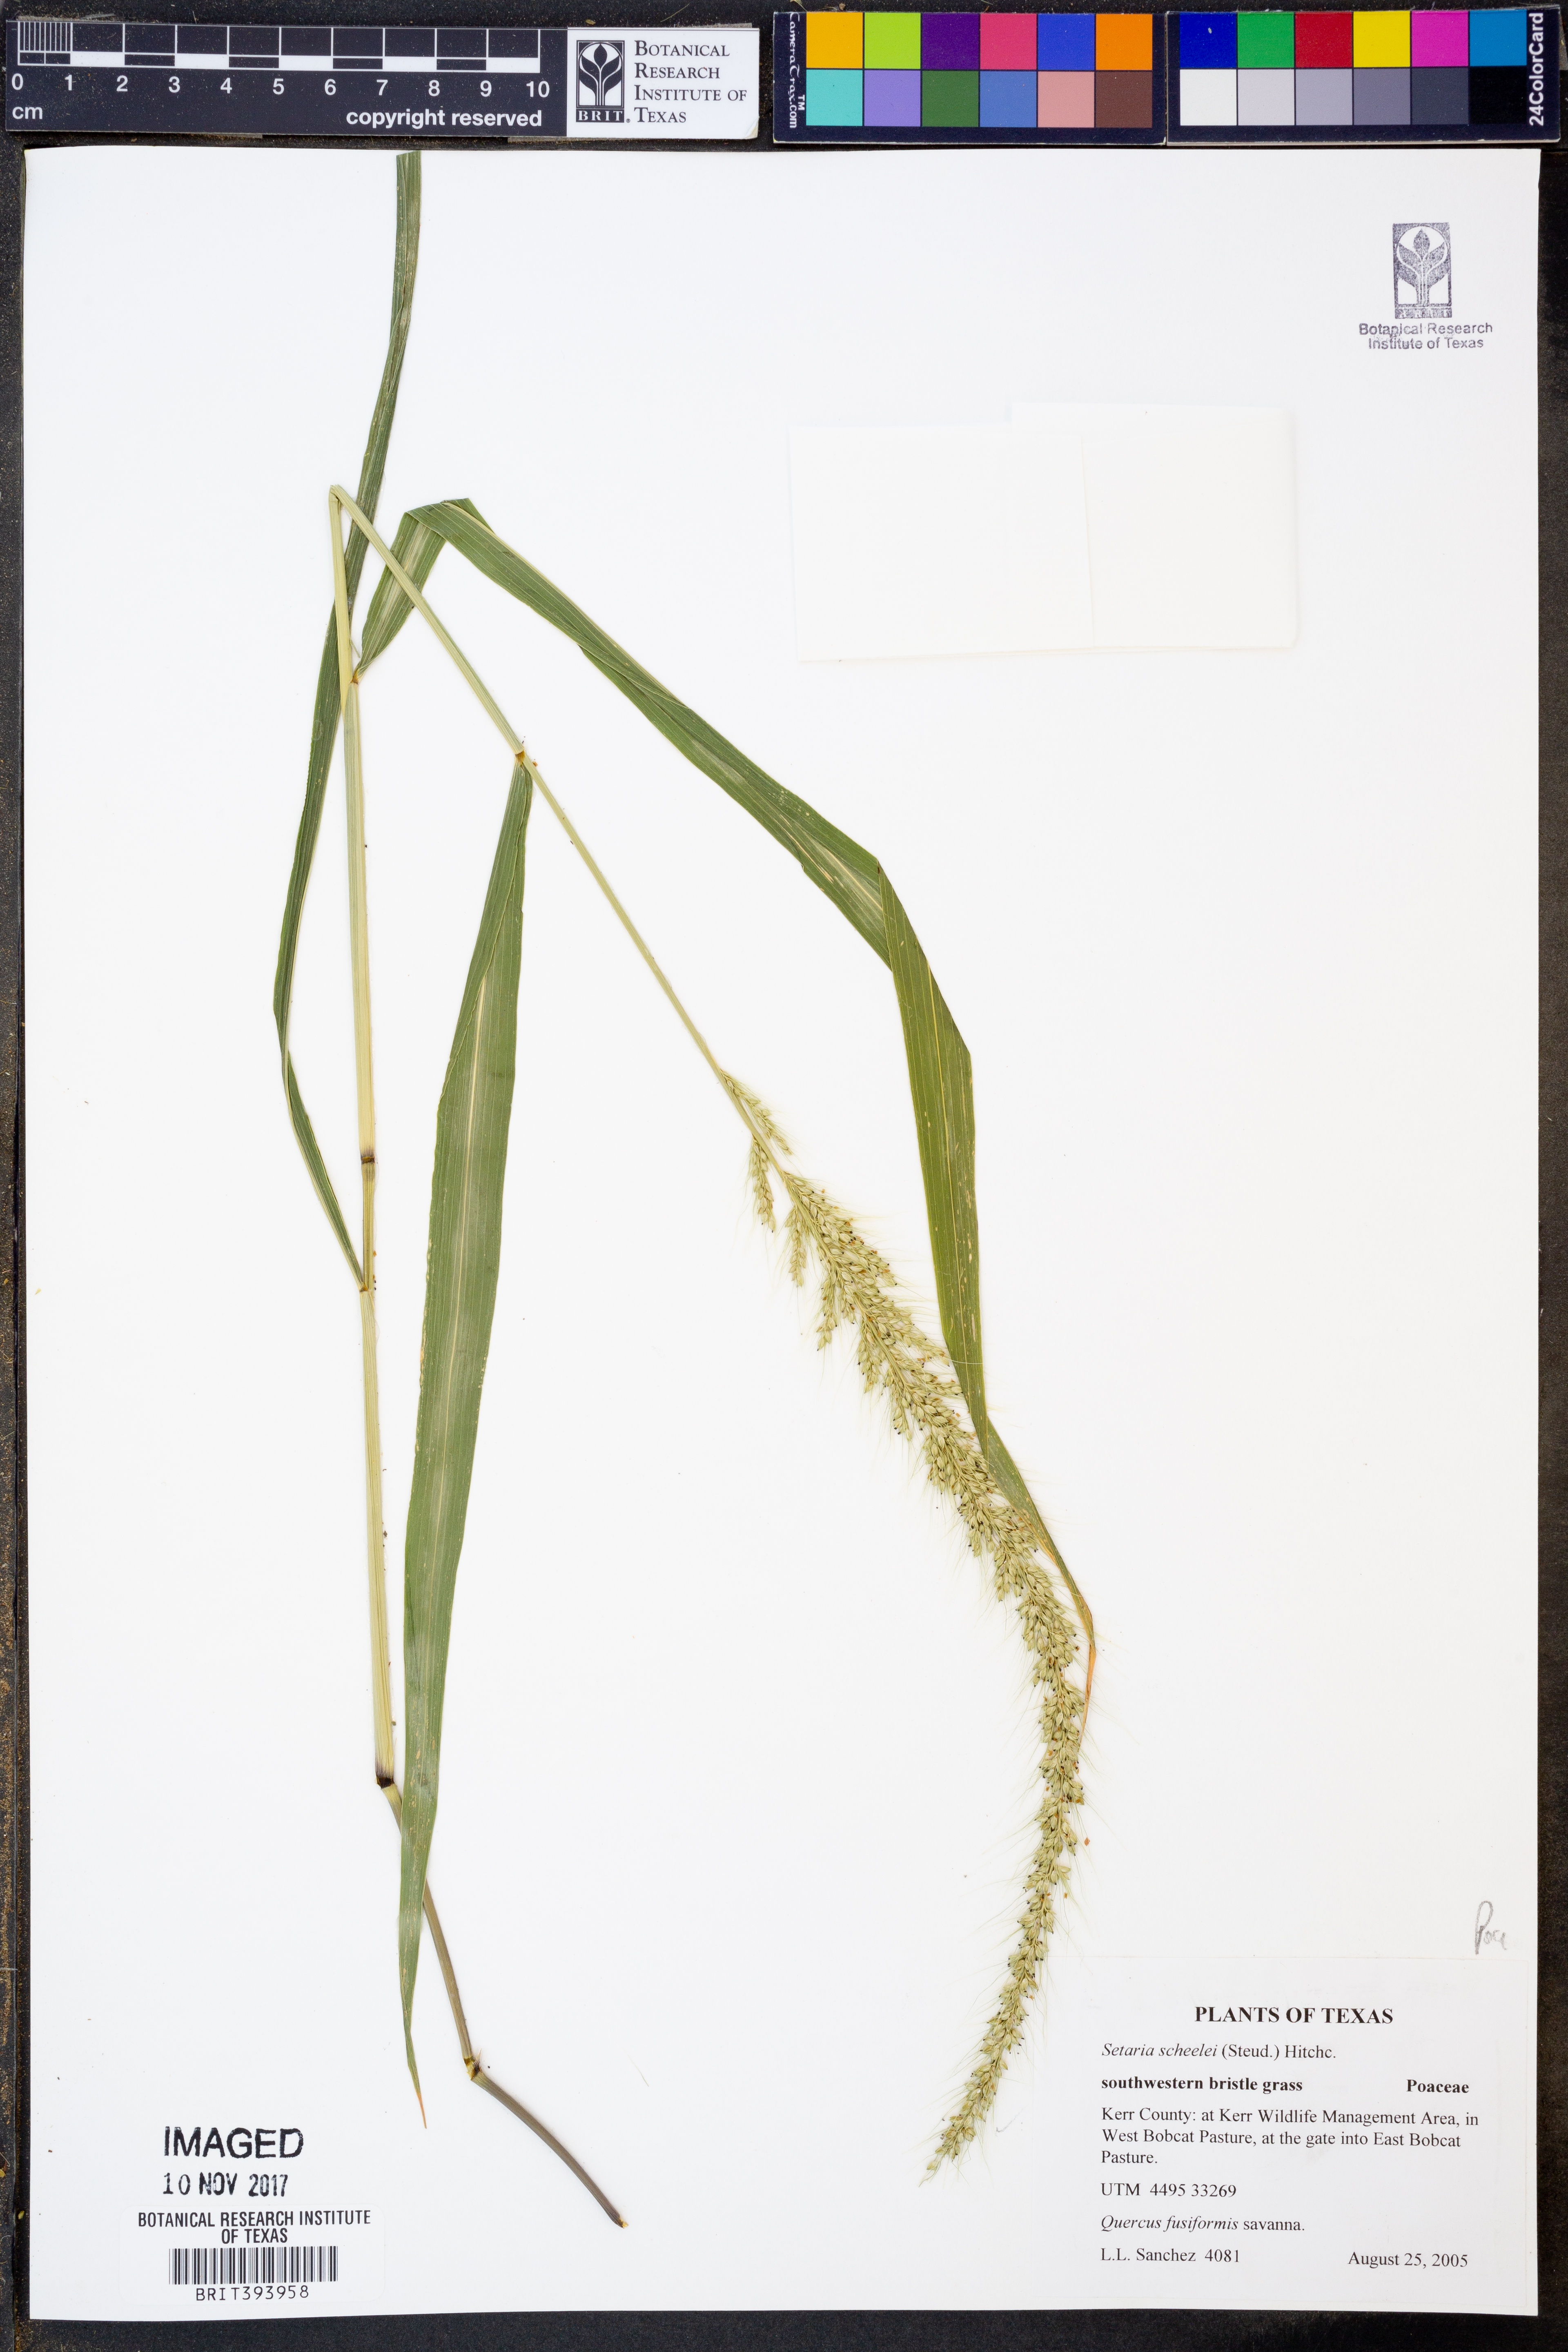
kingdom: Plantae
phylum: Tracheophyta
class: Liliopsida
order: Poales
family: Poaceae
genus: Setaria
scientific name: Setaria scheelei
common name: Southwestern bristle grass
